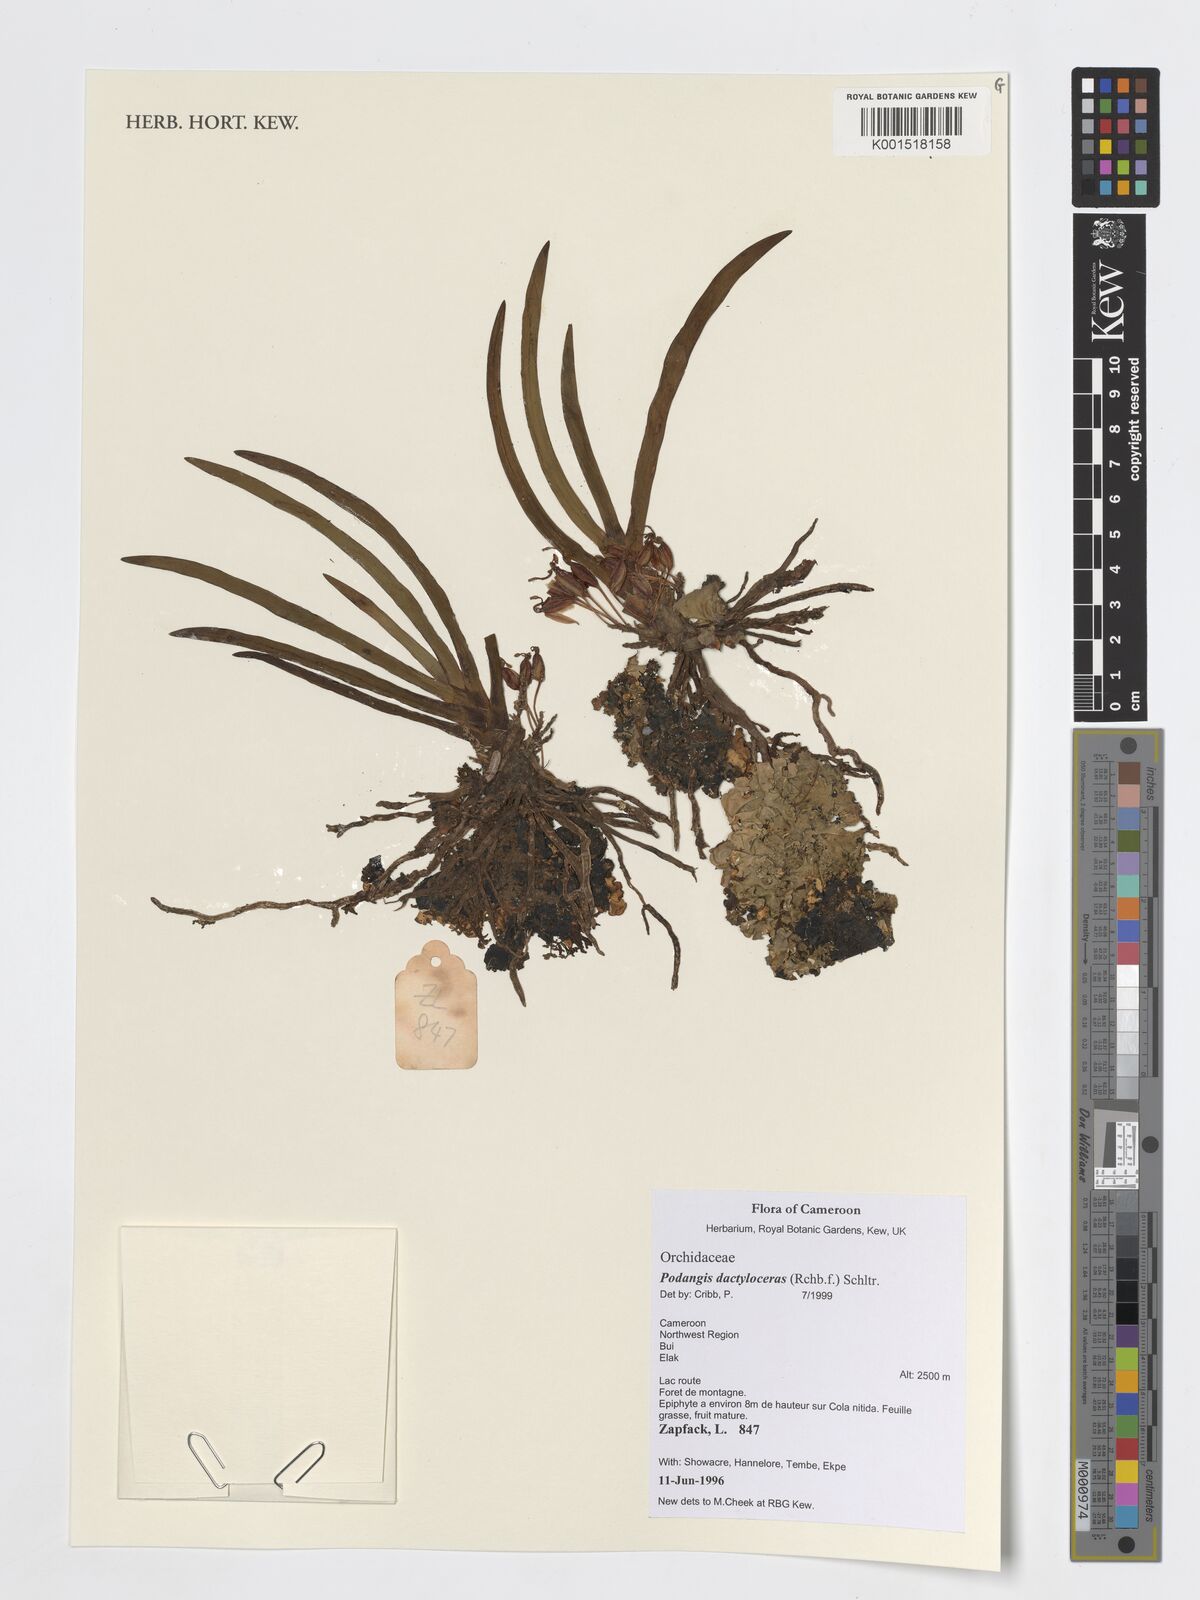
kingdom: Plantae
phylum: Tracheophyta
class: Liliopsida
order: Asparagales
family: Orchidaceae
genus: Podangis
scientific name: Podangis dactyloceras
